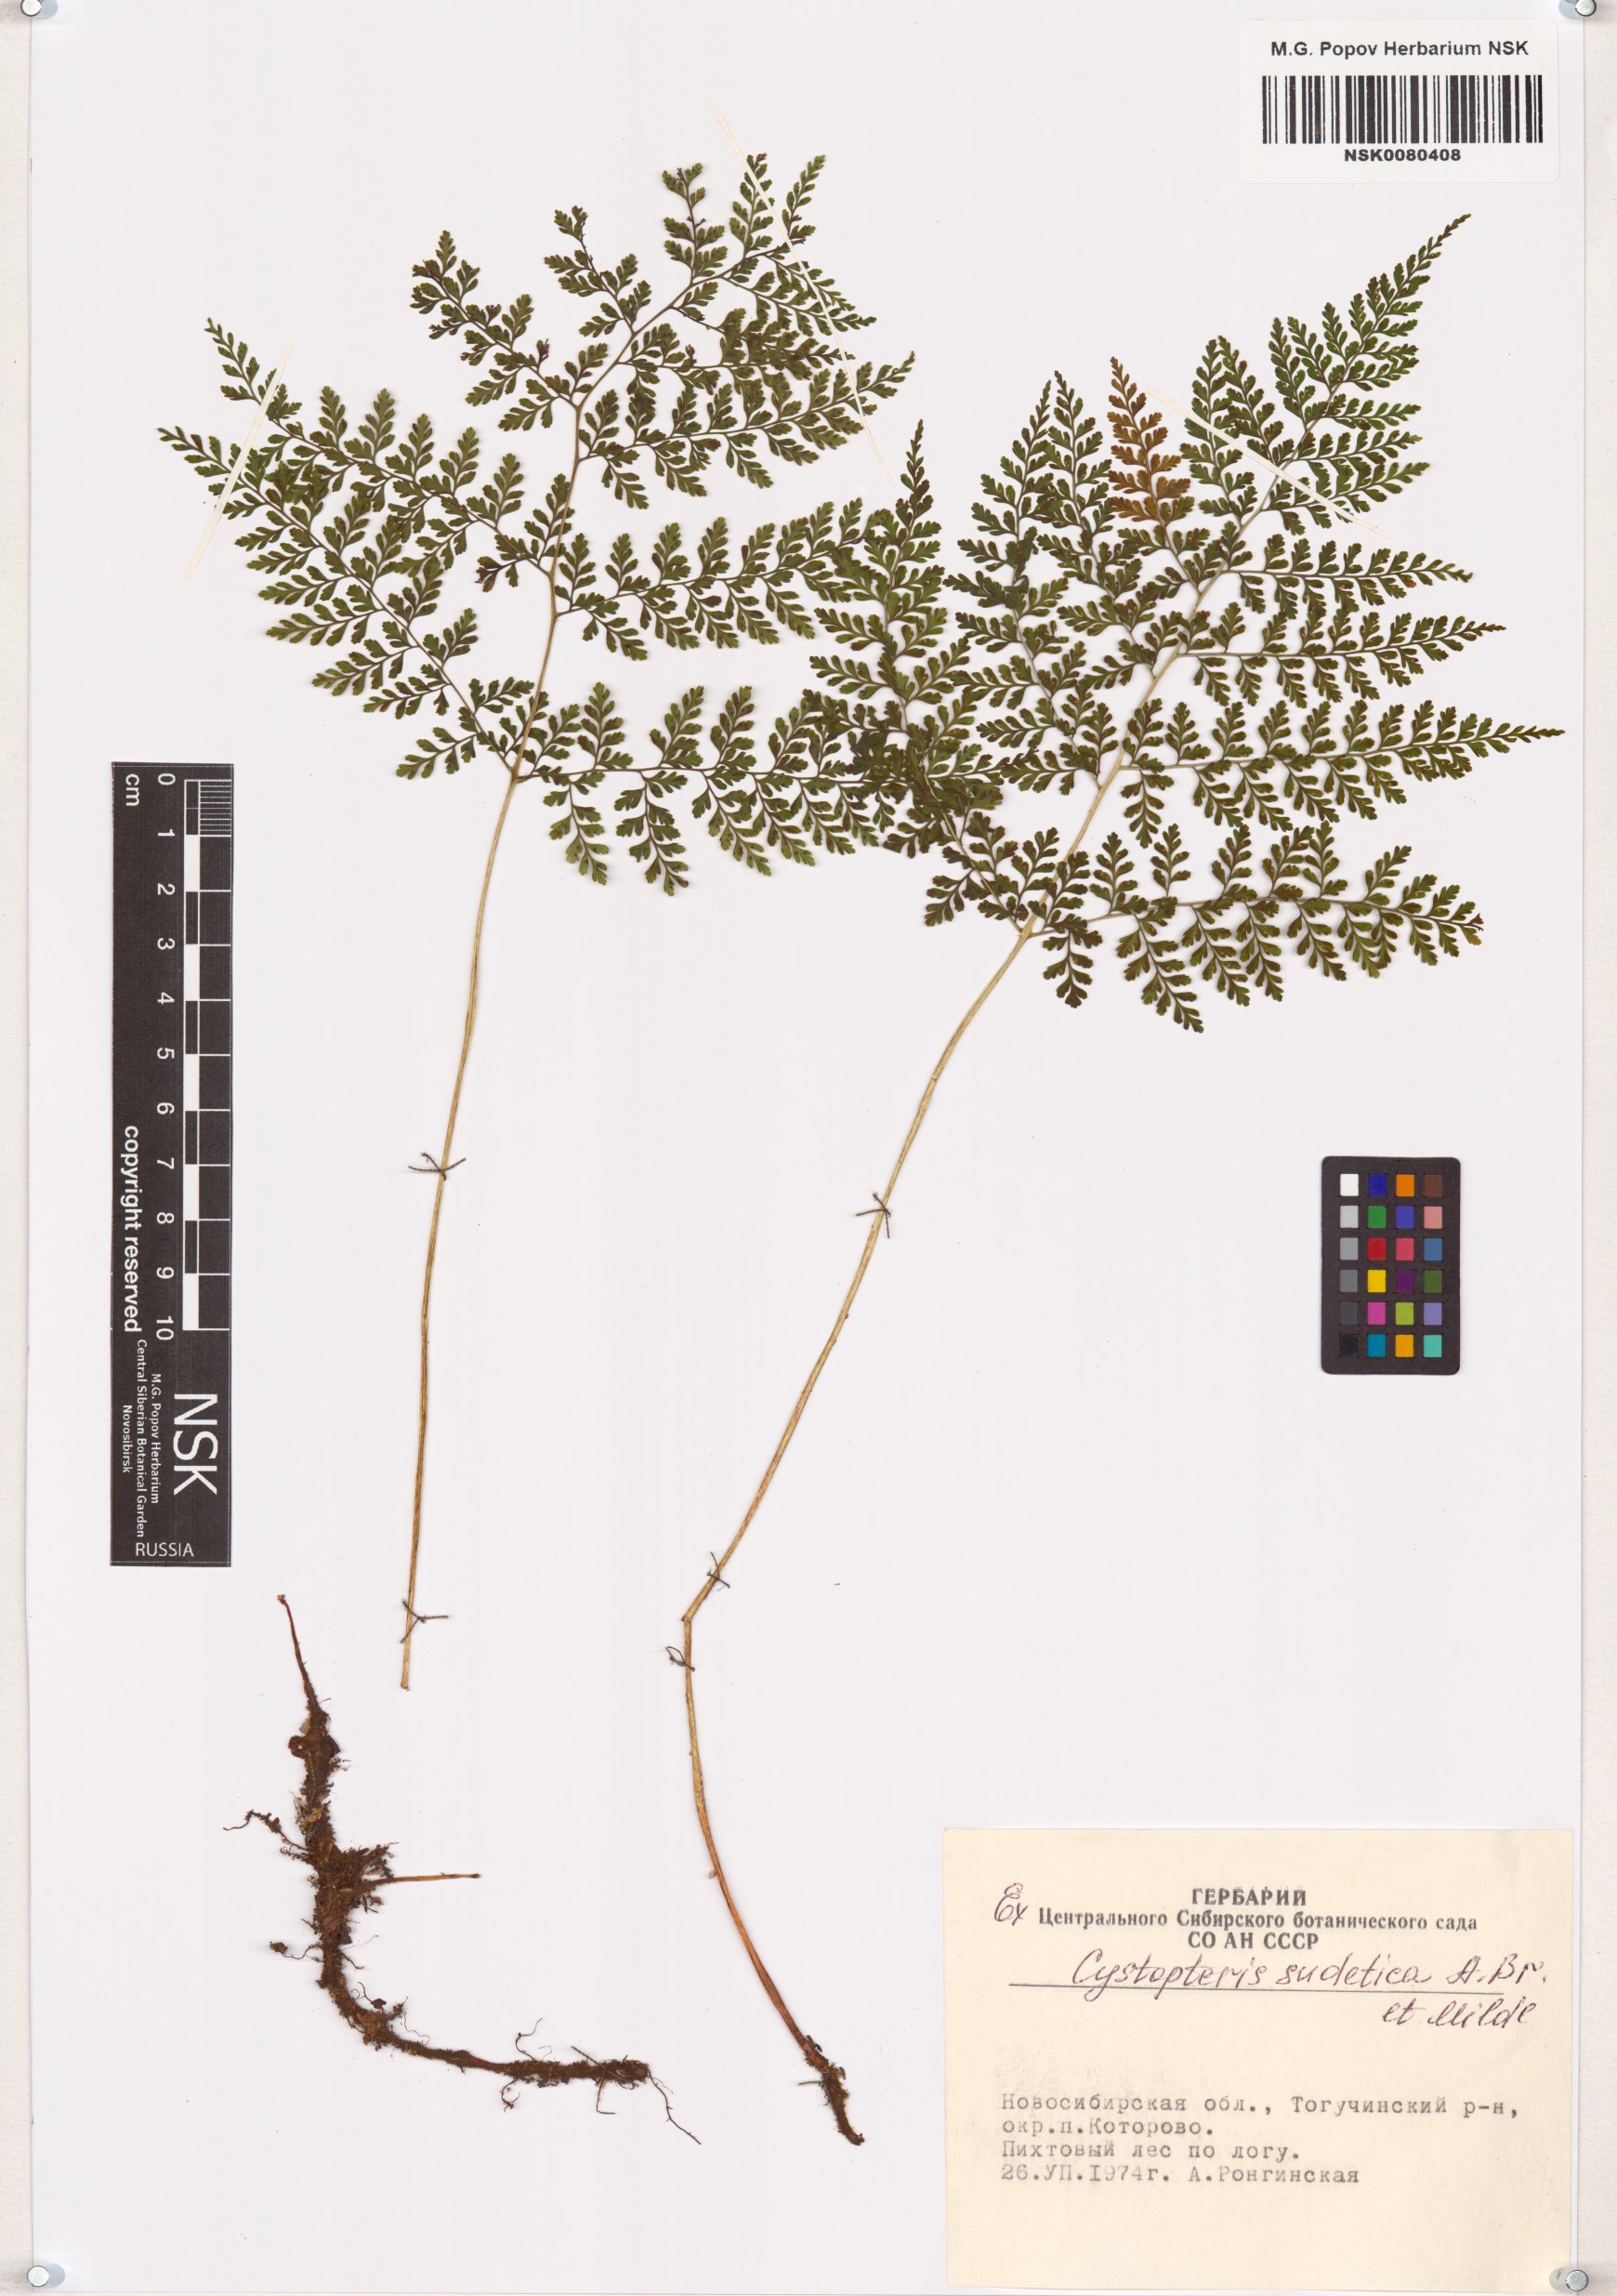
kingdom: Plantae
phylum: Tracheophyta
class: Polypodiopsida
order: Polypodiales
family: Cystopteridaceae
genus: Cystopteris
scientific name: Cystopteris sudetica
